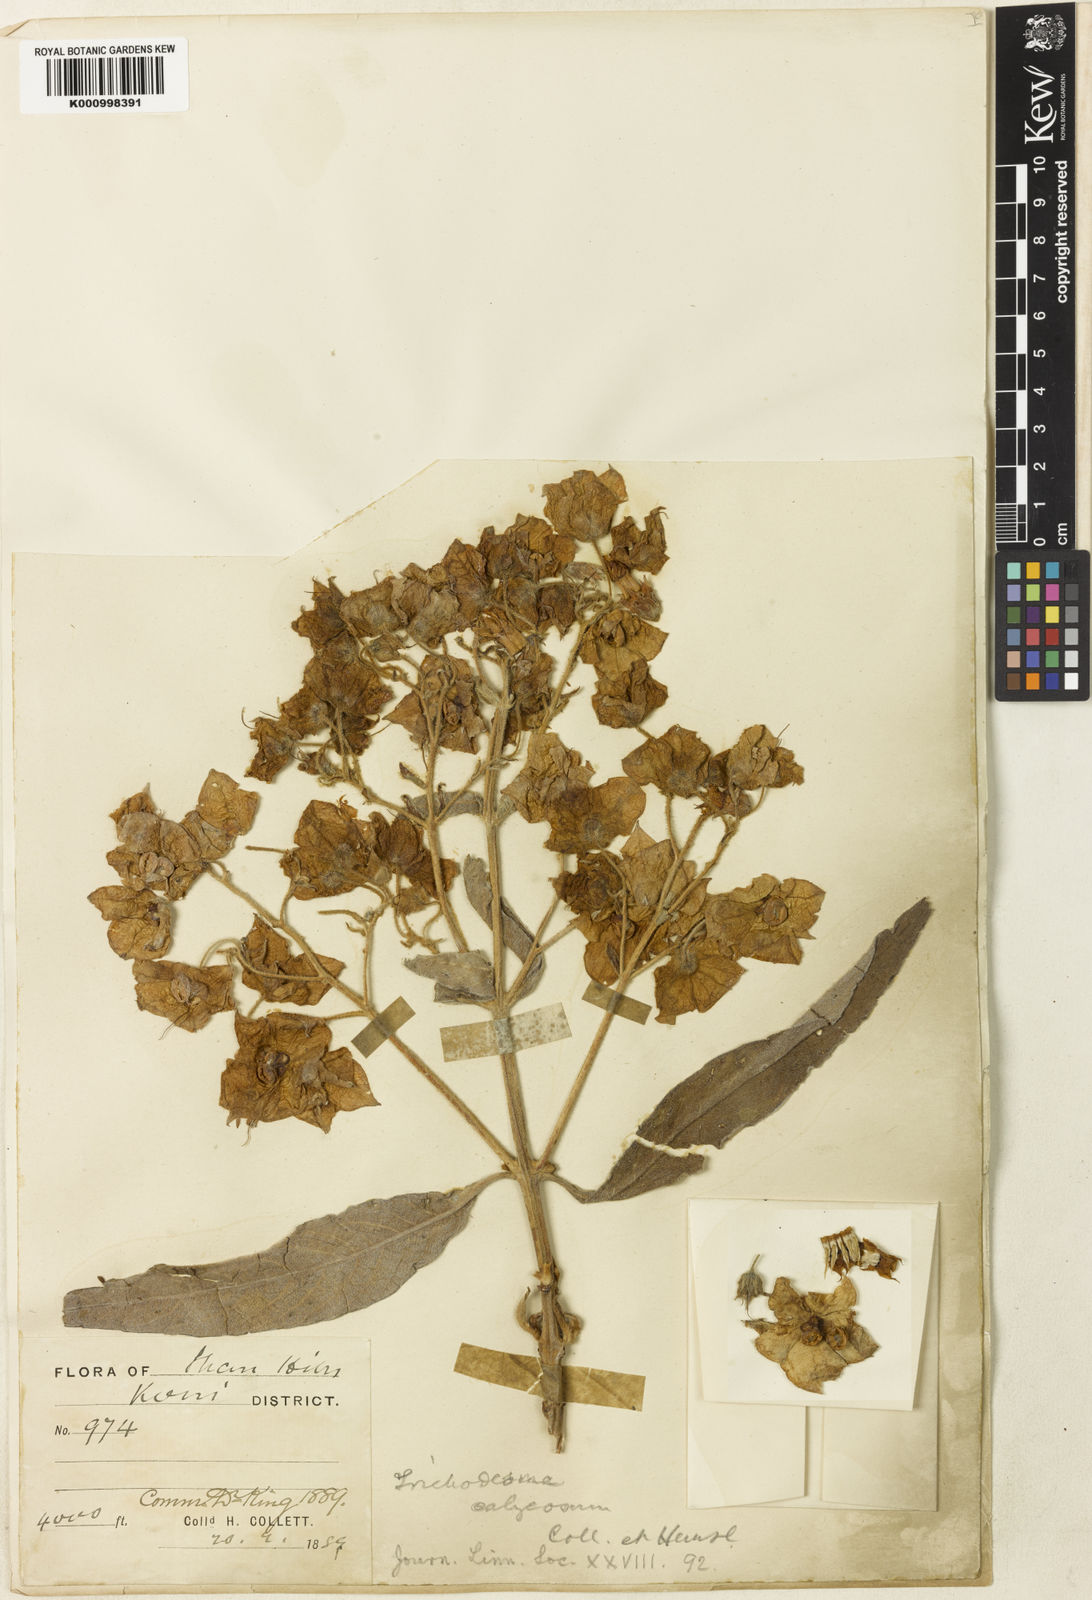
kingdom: Plantae
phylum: Tracheophyta
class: Magnoliopsida
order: Boraginales
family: Boraginaceae
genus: Trichodesma
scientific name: Trichodesma calycosum
